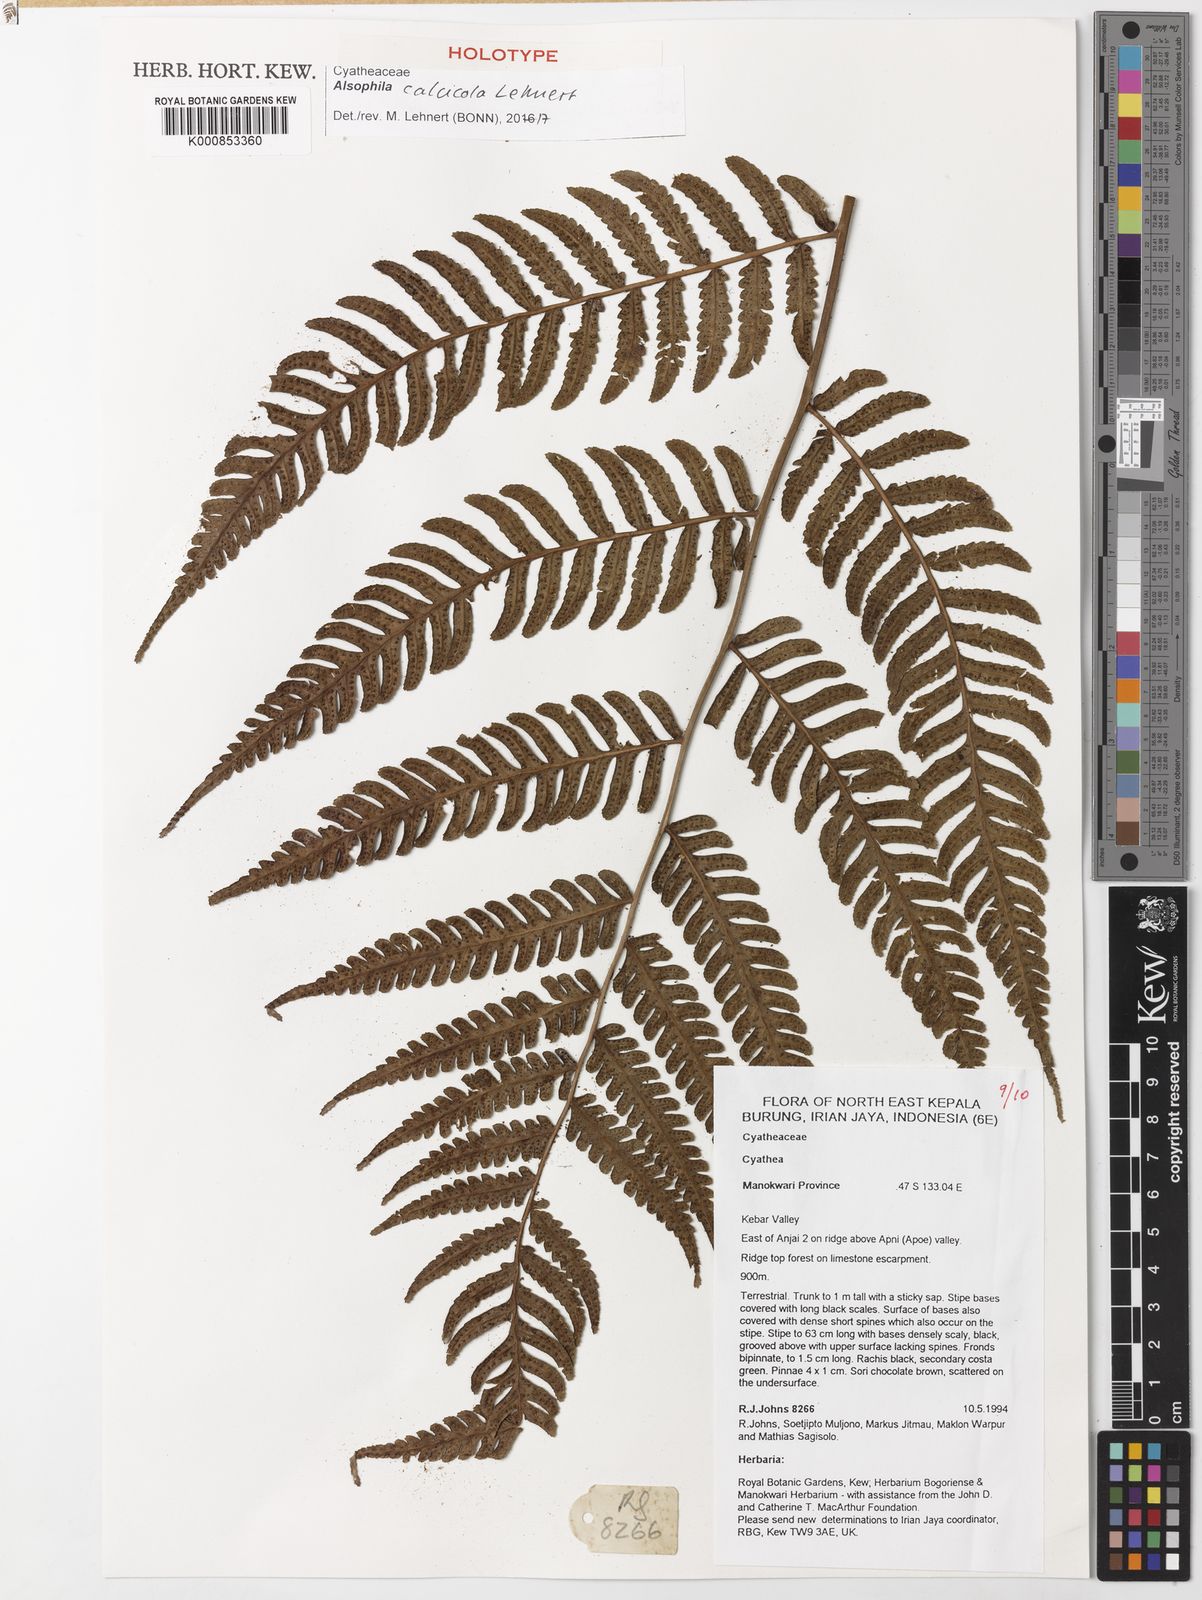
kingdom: Plantae
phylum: Tracheophyta
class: Polypodiopsida
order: Cyatheales
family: Cyatheaceae
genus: Alsophila
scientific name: Alsophila calcicola
